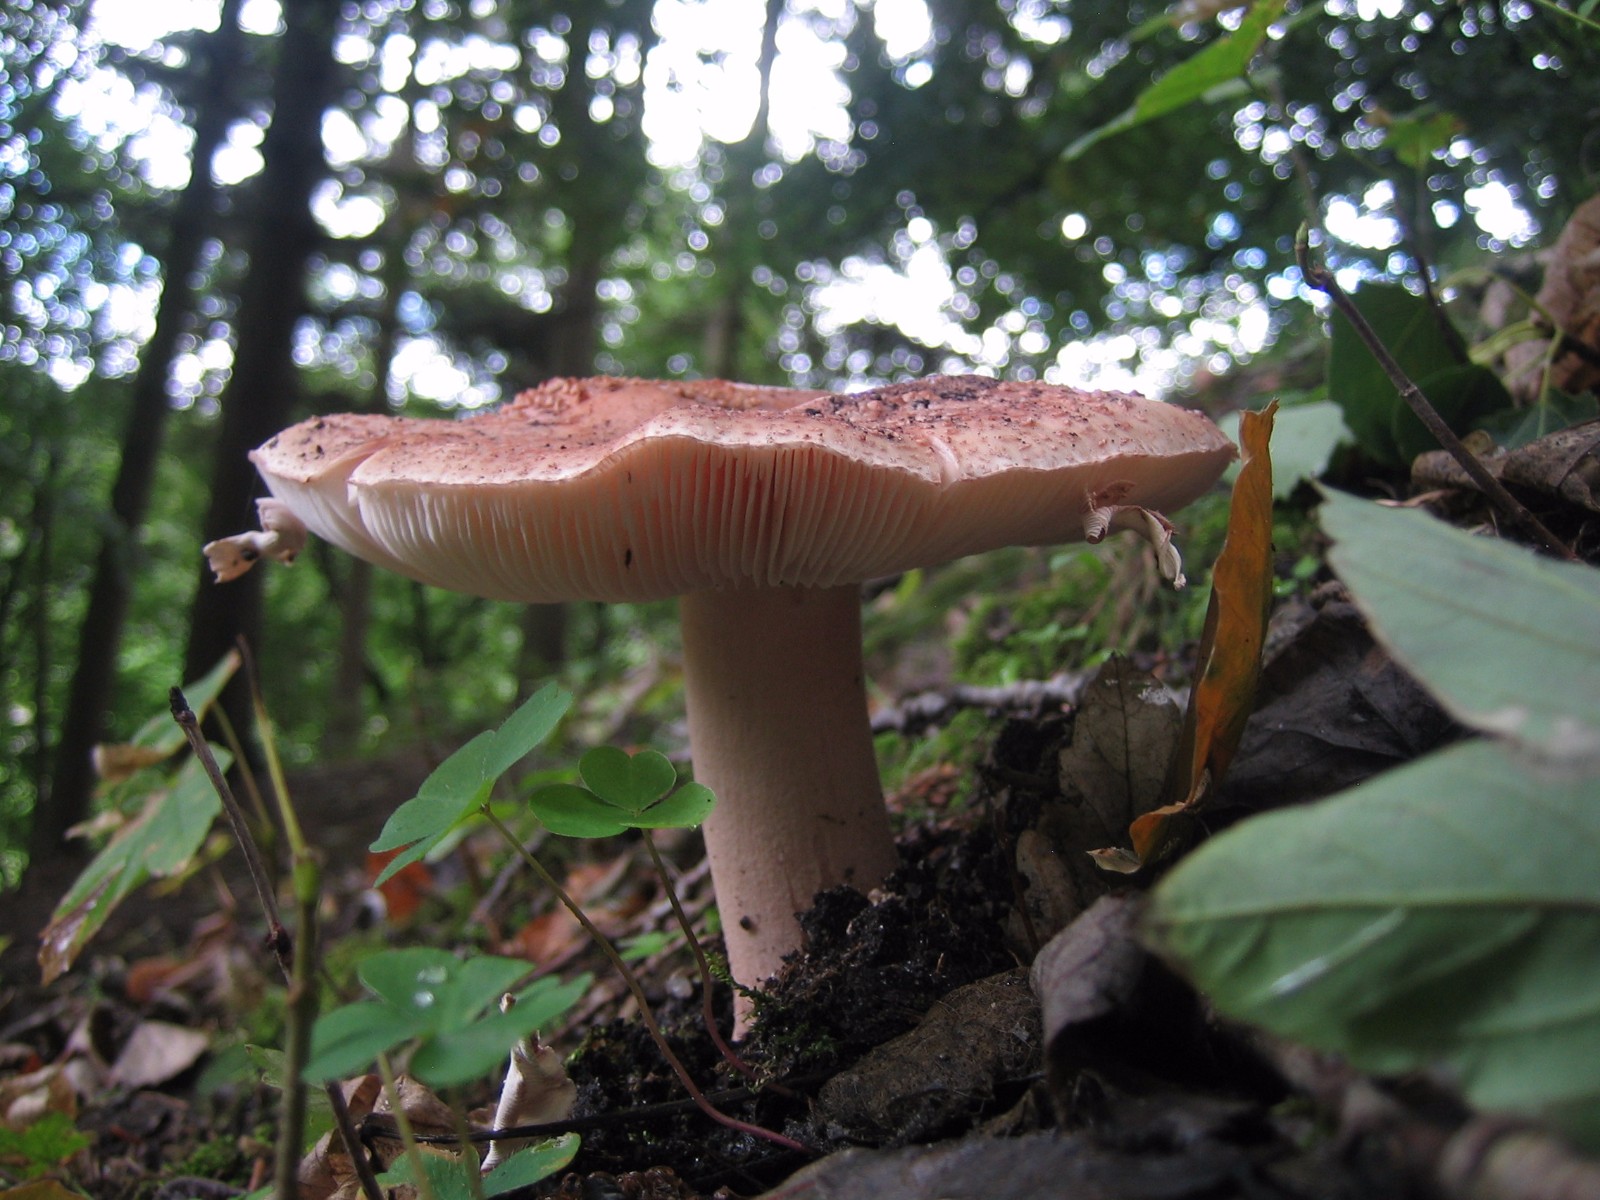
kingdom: Fungi
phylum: Basidiomycota
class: Agaricomycetes
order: Agaricales
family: Amanitaceae
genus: Amanita
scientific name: Amanita rubescens
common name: rødmende fluesvamp
